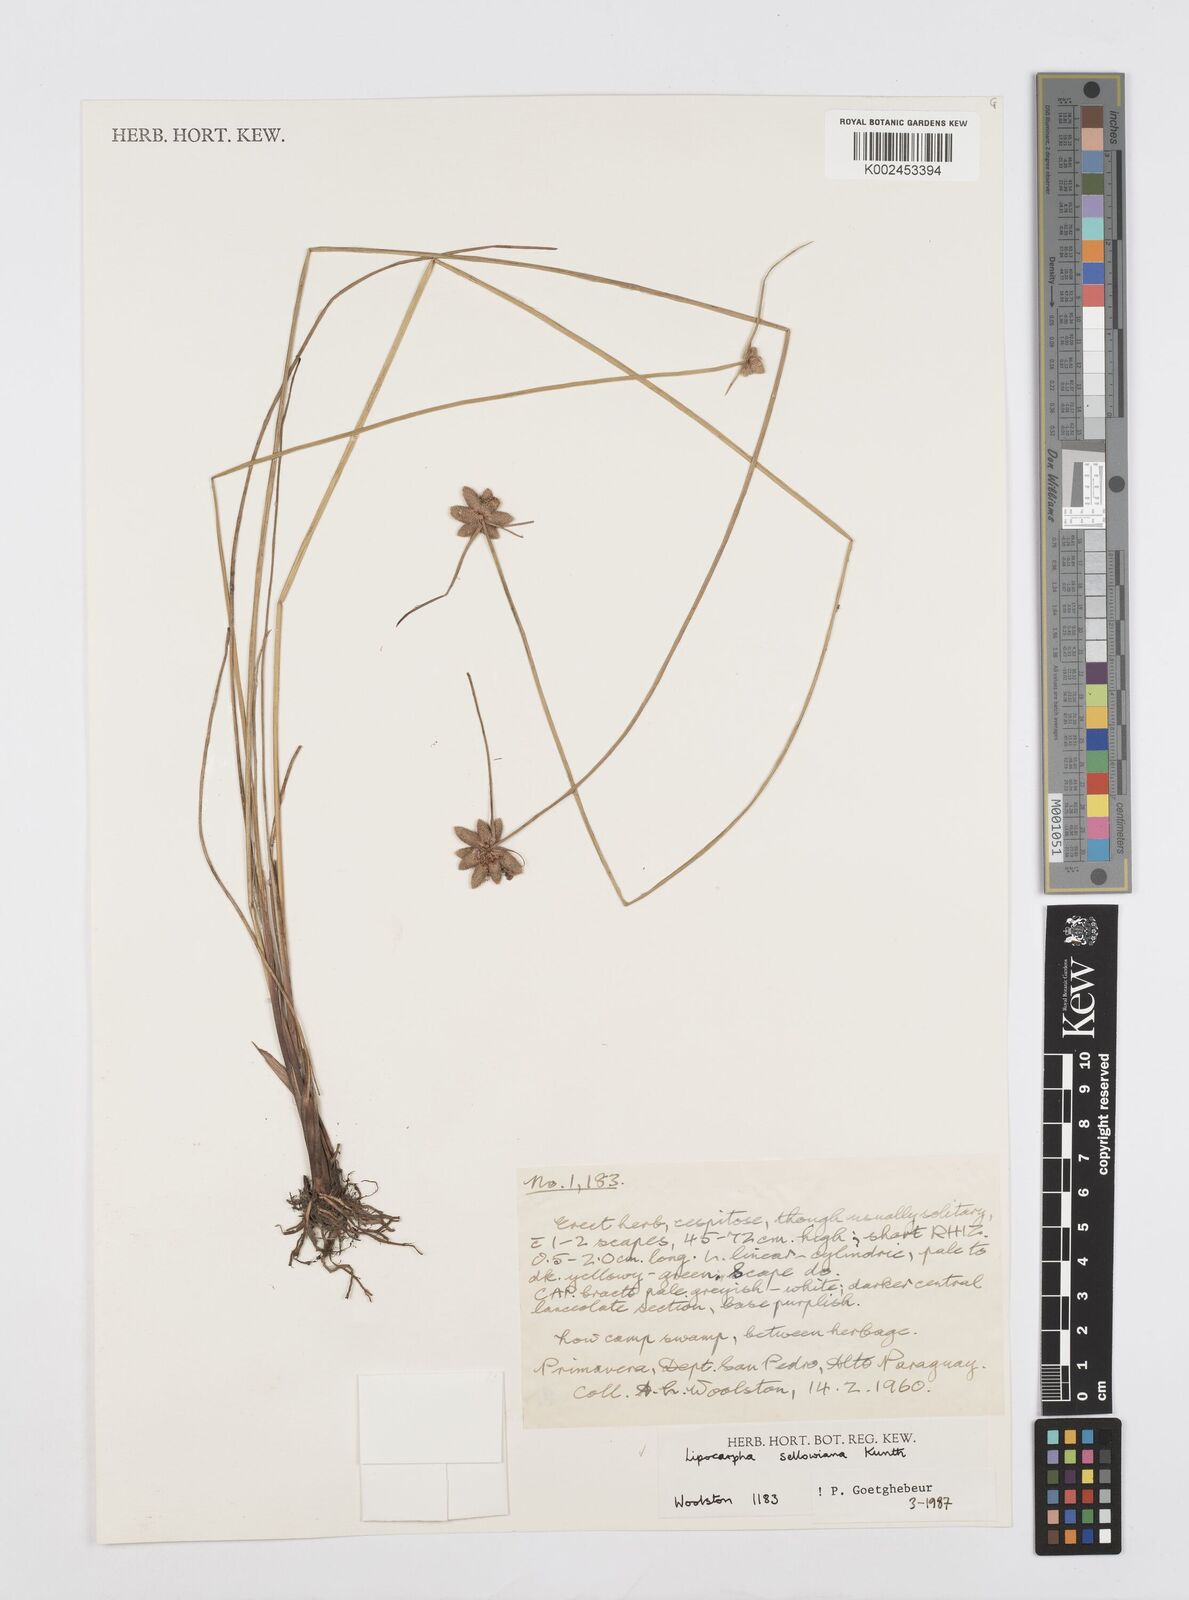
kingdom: Plantae
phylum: Tracheophyta
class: Liliopsida
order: Poales
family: Cyperaceae
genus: Cyperus
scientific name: Cyperus lanceolatus
